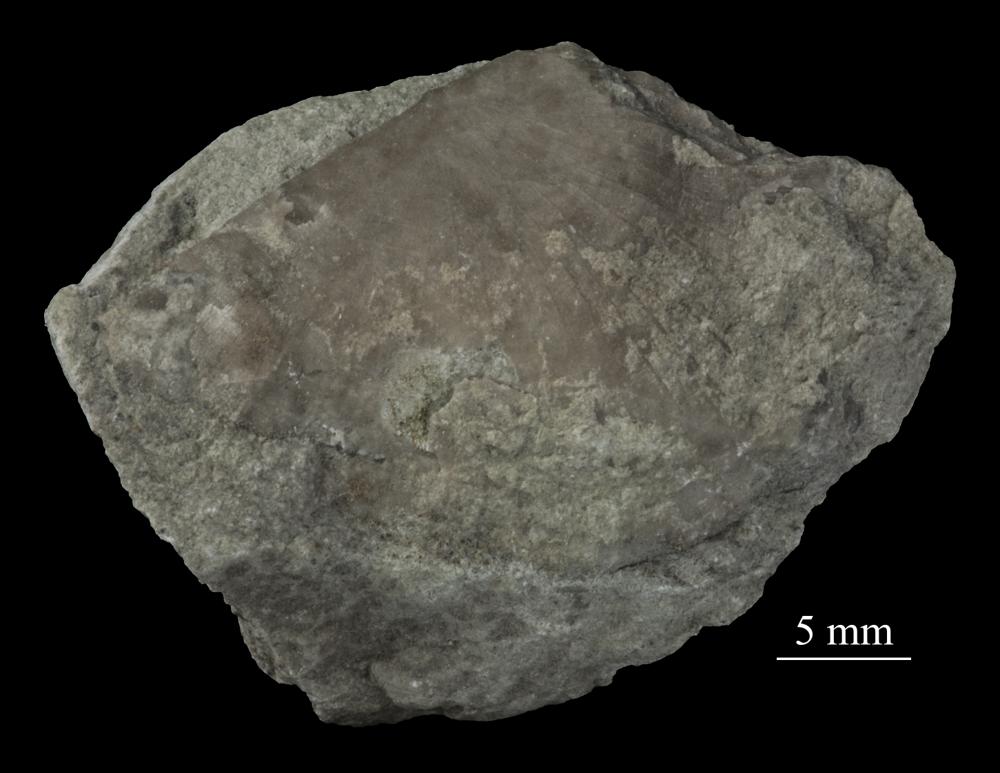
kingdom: Animalia
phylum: Brachiopoda
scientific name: Brachiopoda
